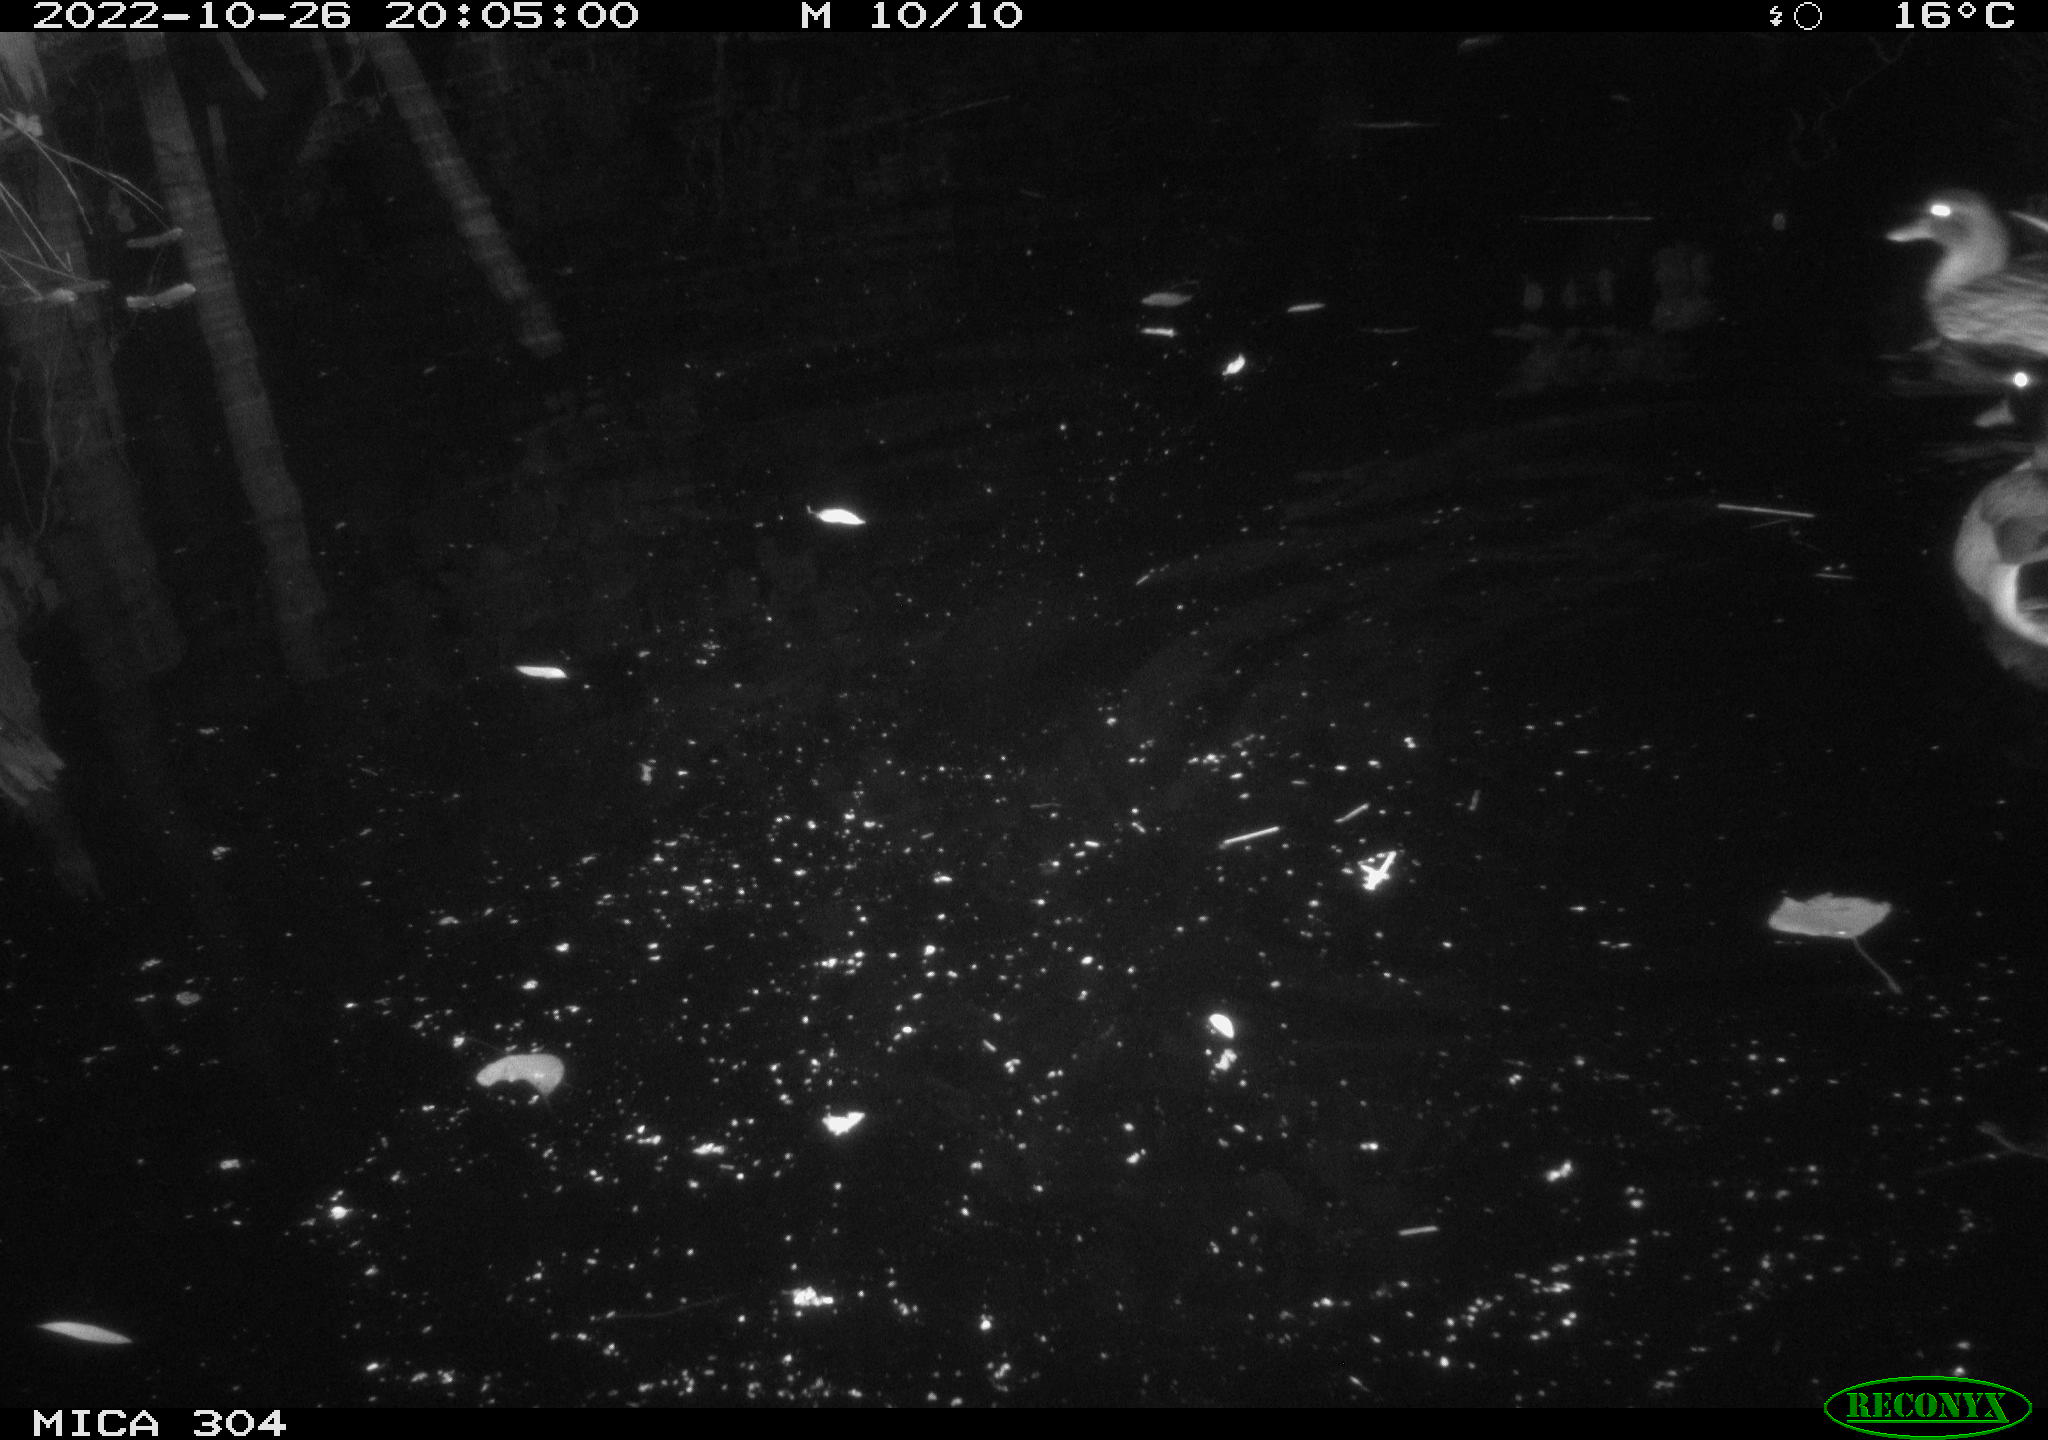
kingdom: Animalia
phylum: Chordata
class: Aves
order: Anseriformes
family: Anatidae
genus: Anas
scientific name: Anas
